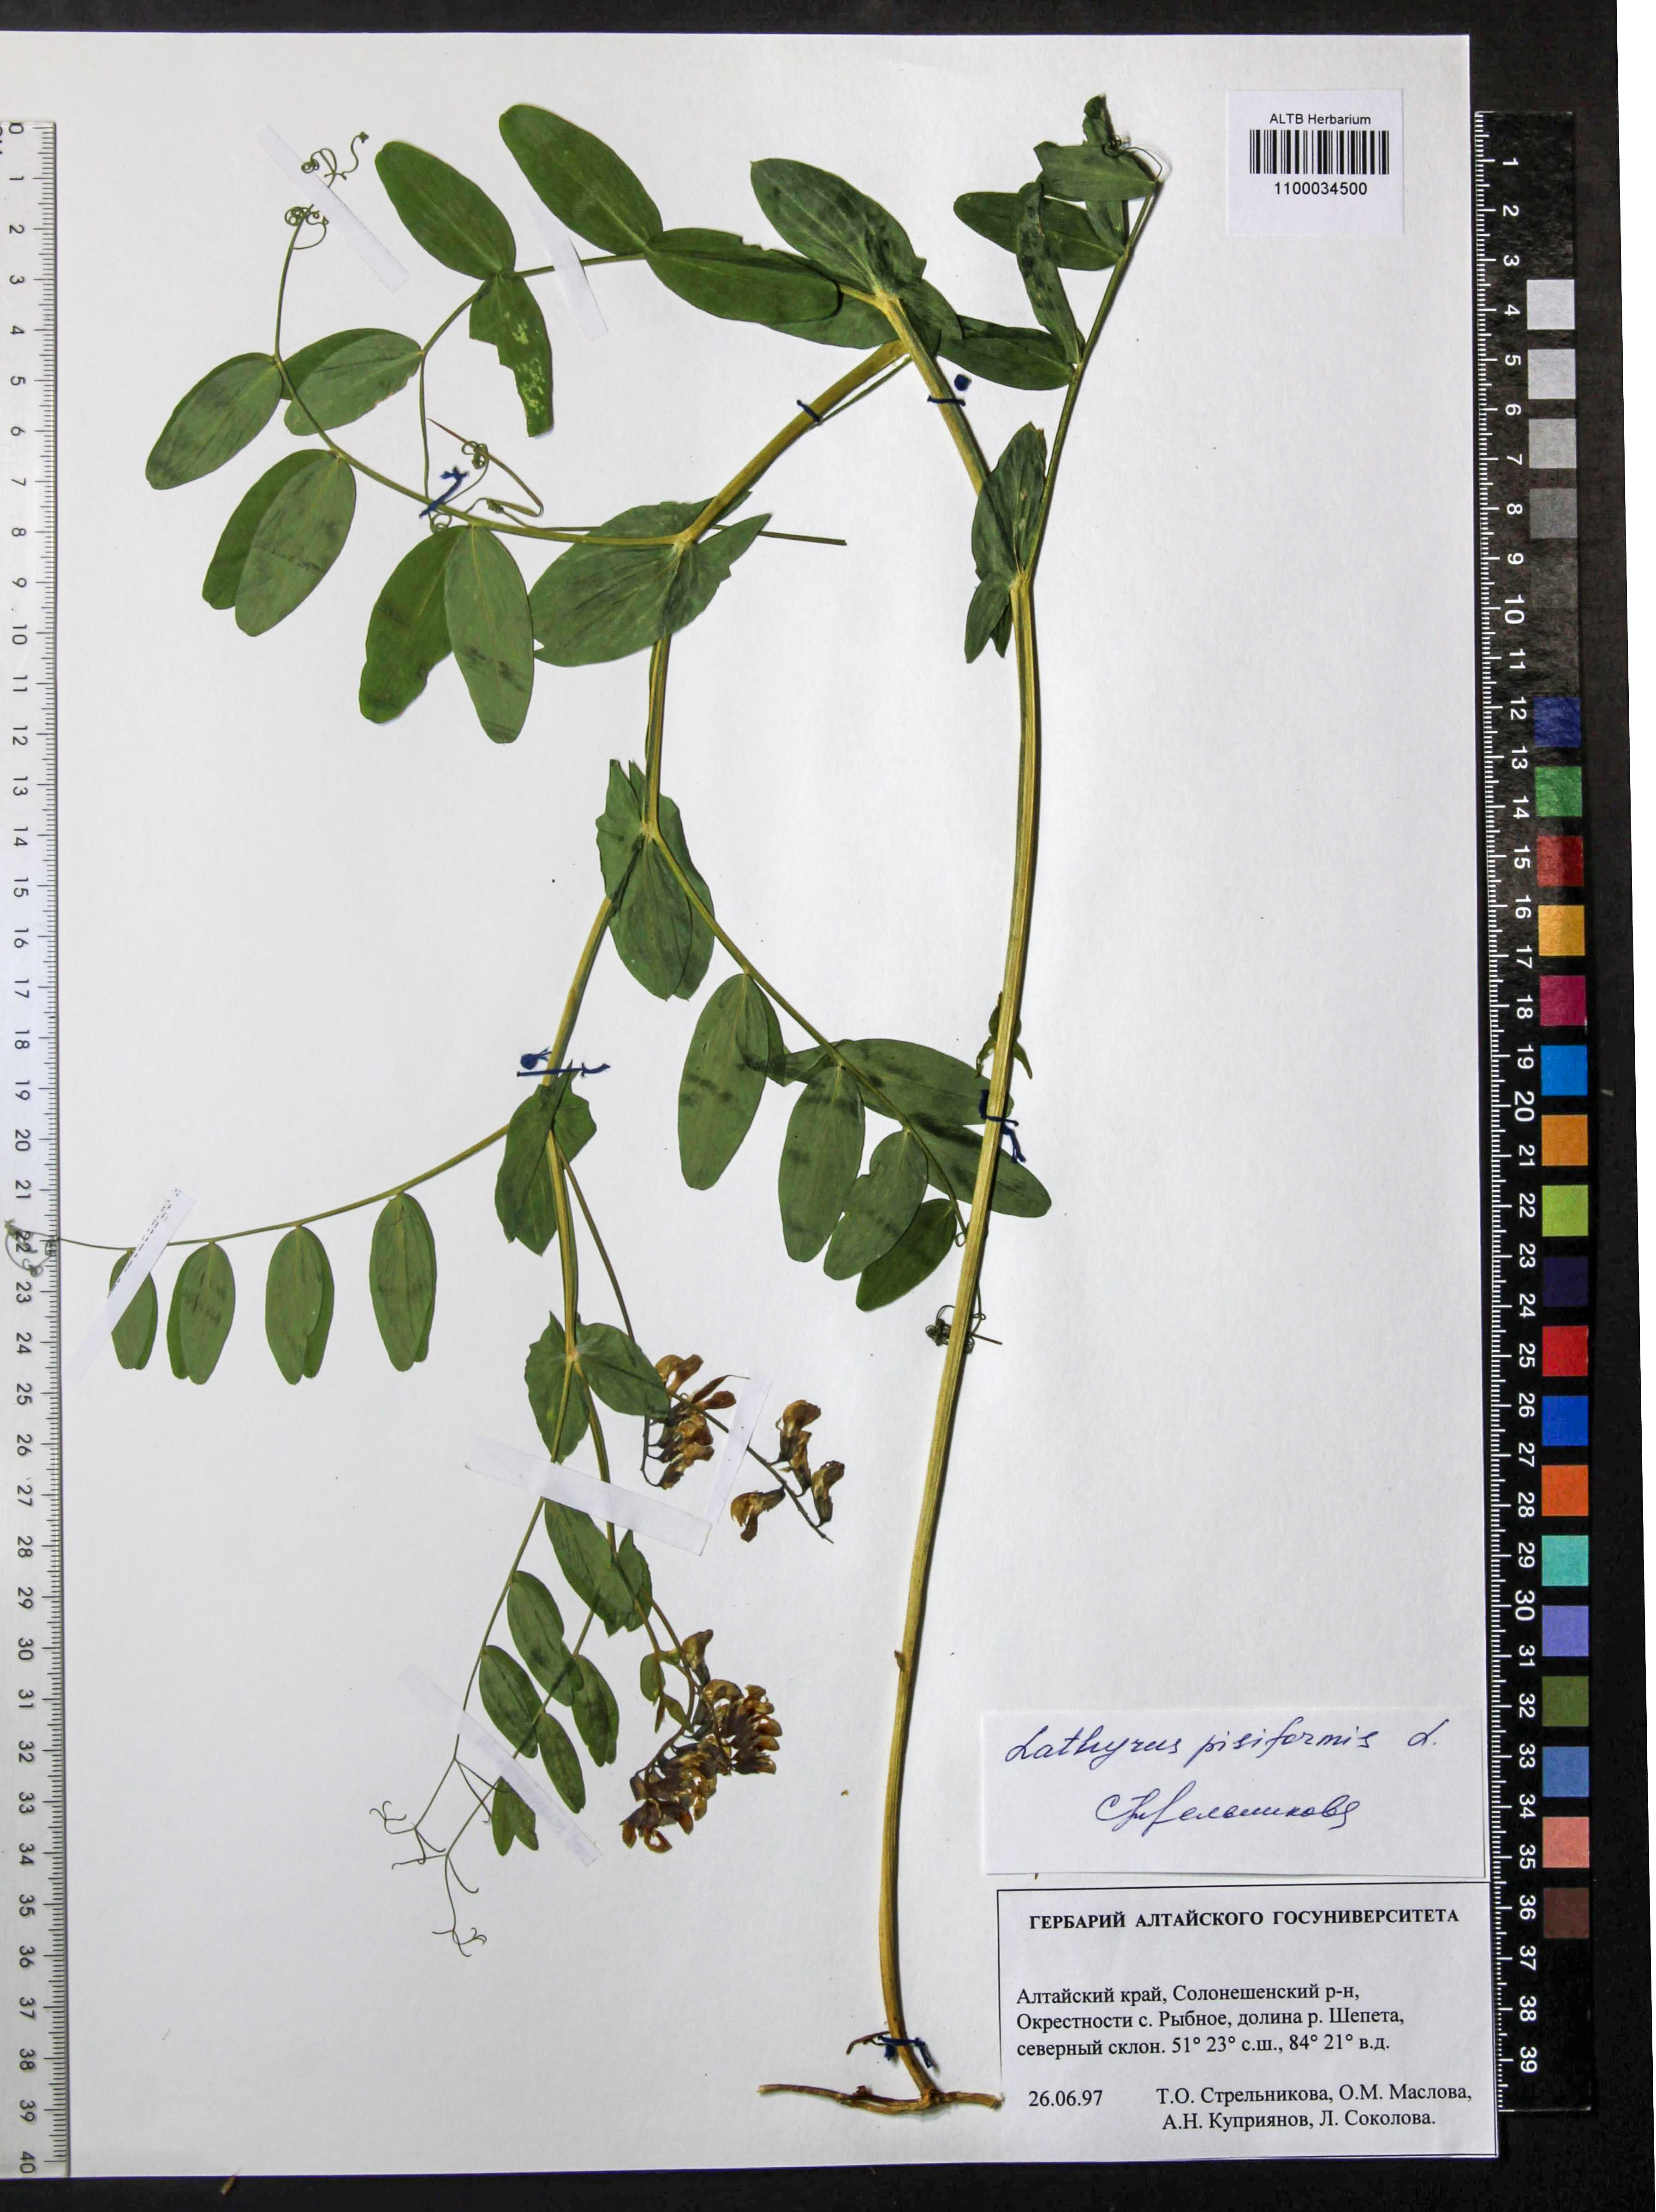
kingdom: Plantae
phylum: Tracheophyta
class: Magnoliopsida
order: Fabales
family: Fabaceae
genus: Lathyrus
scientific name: Lathyrus pisiformis
